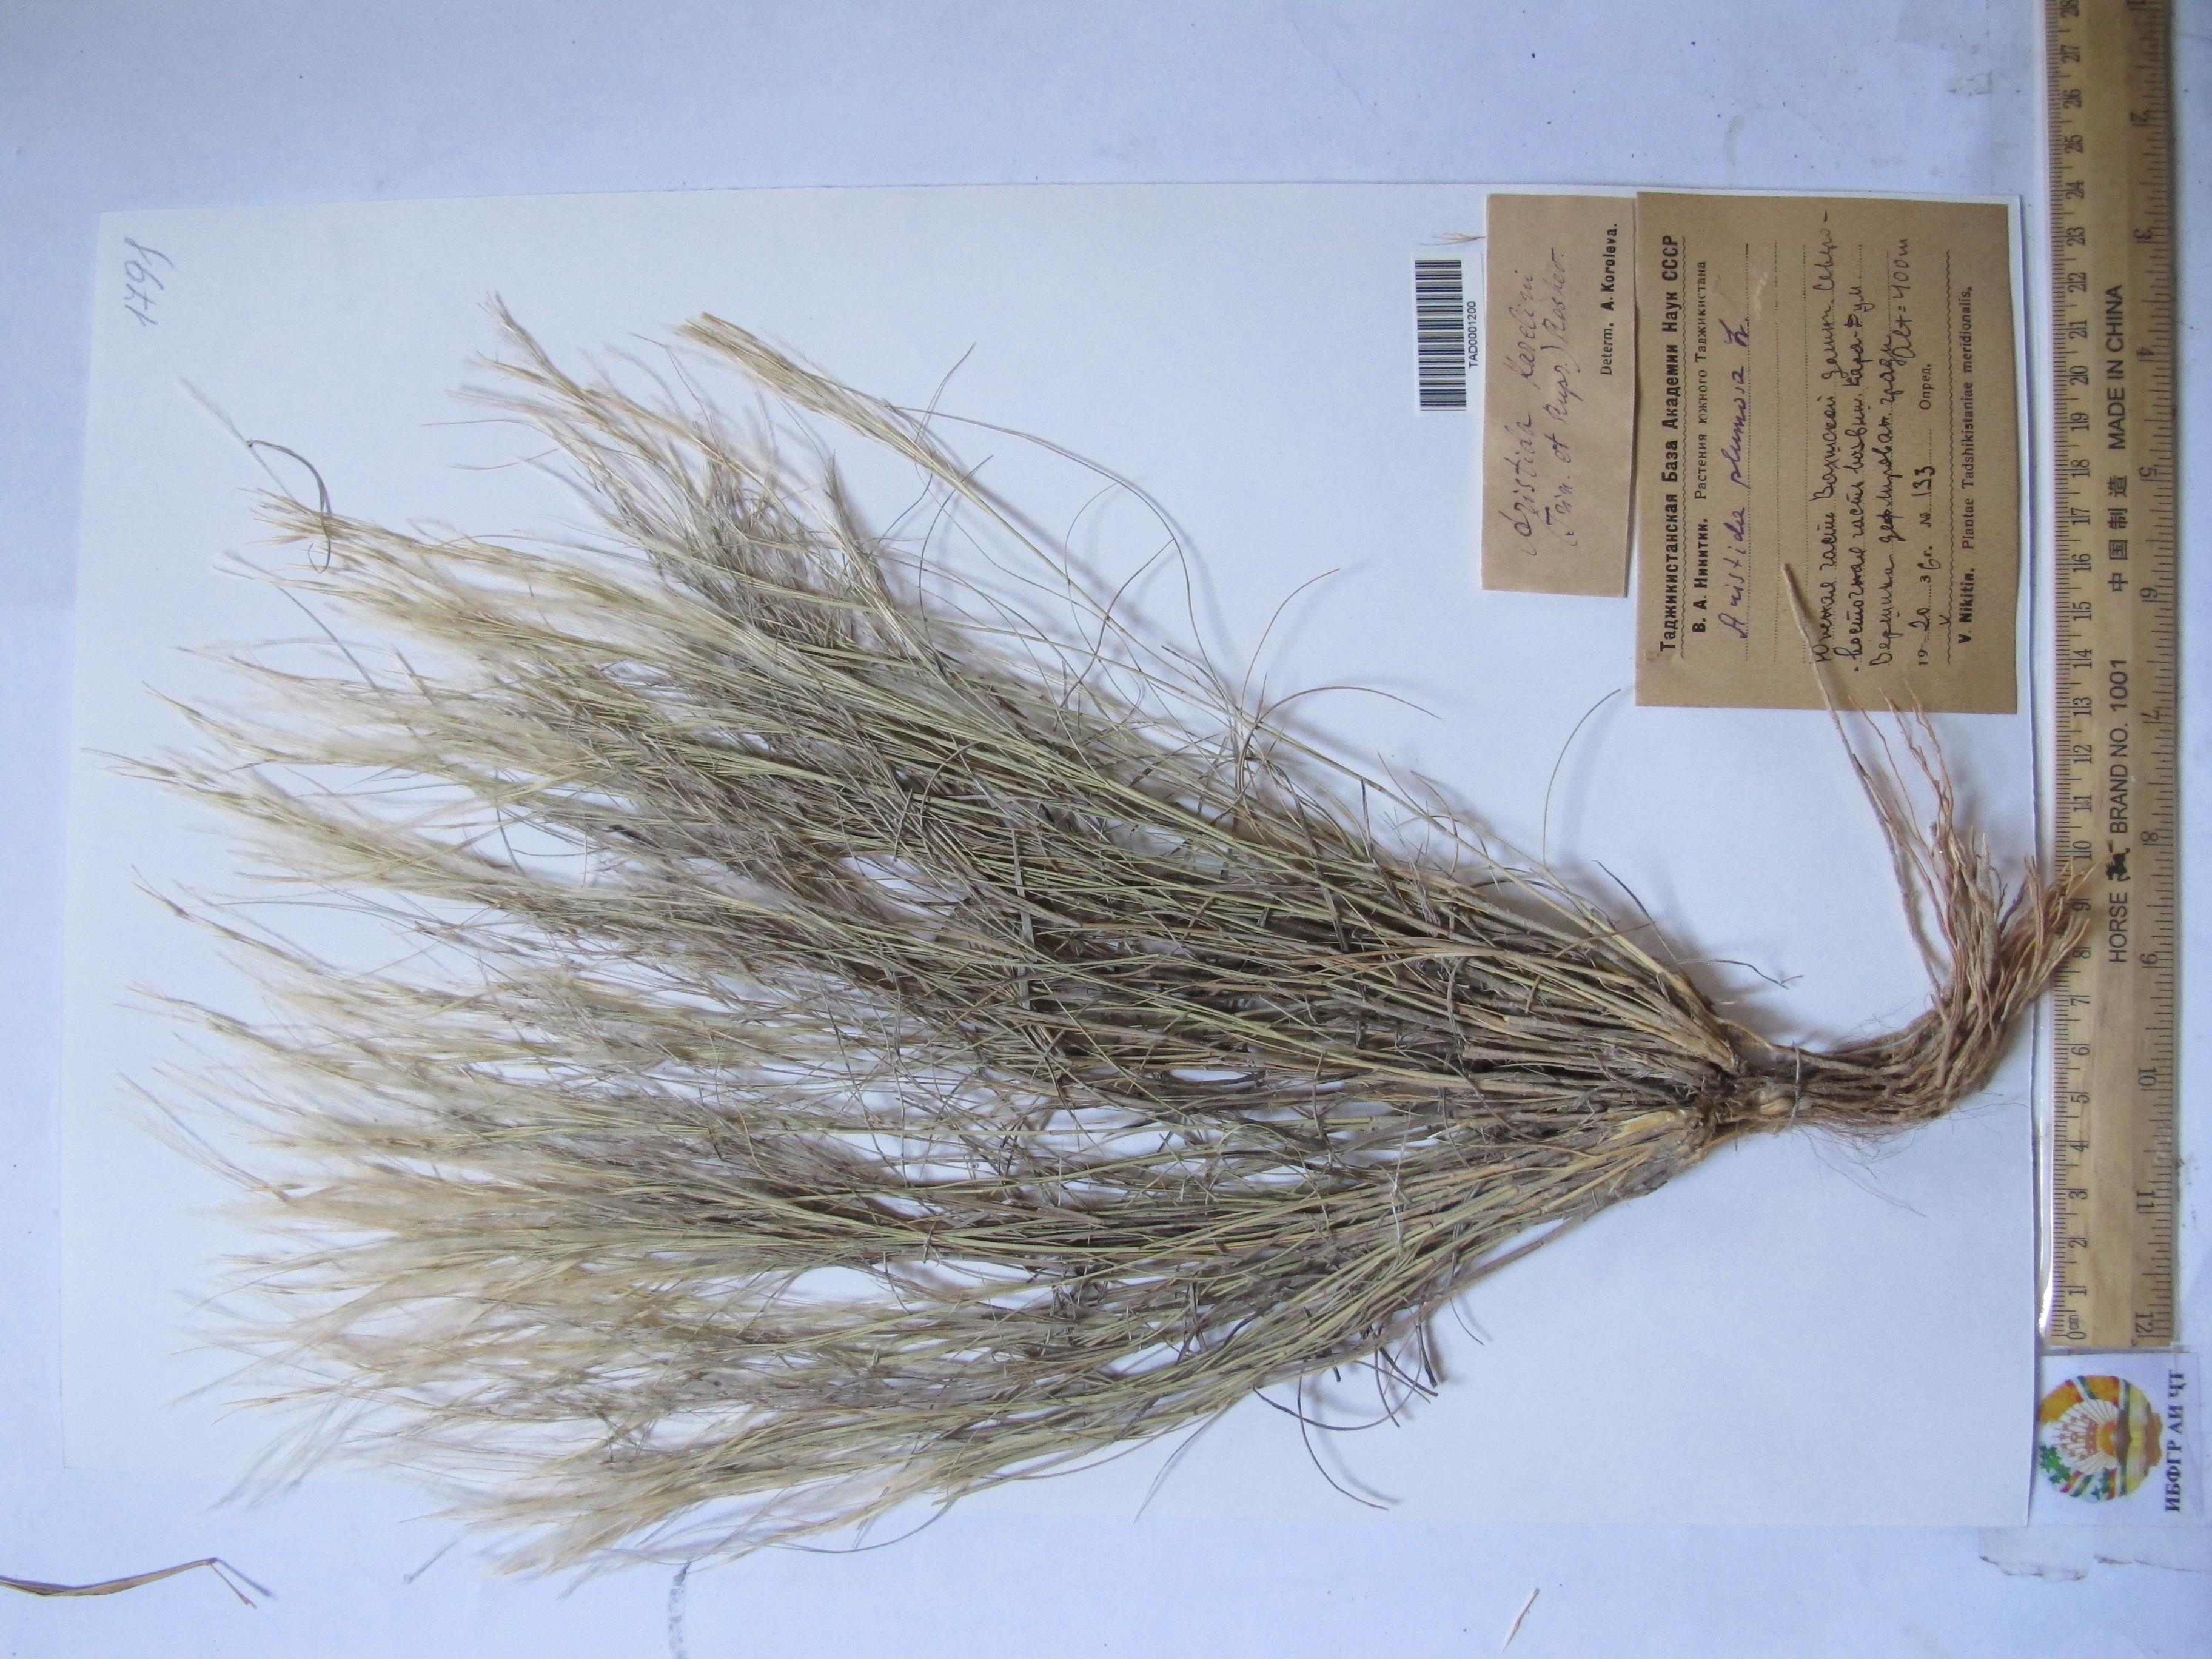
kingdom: Plantae
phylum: Tracheophyta
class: Liliopsida
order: Poales
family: Poaceae
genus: Stipagrostis
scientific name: Stipagrostis plumosa
